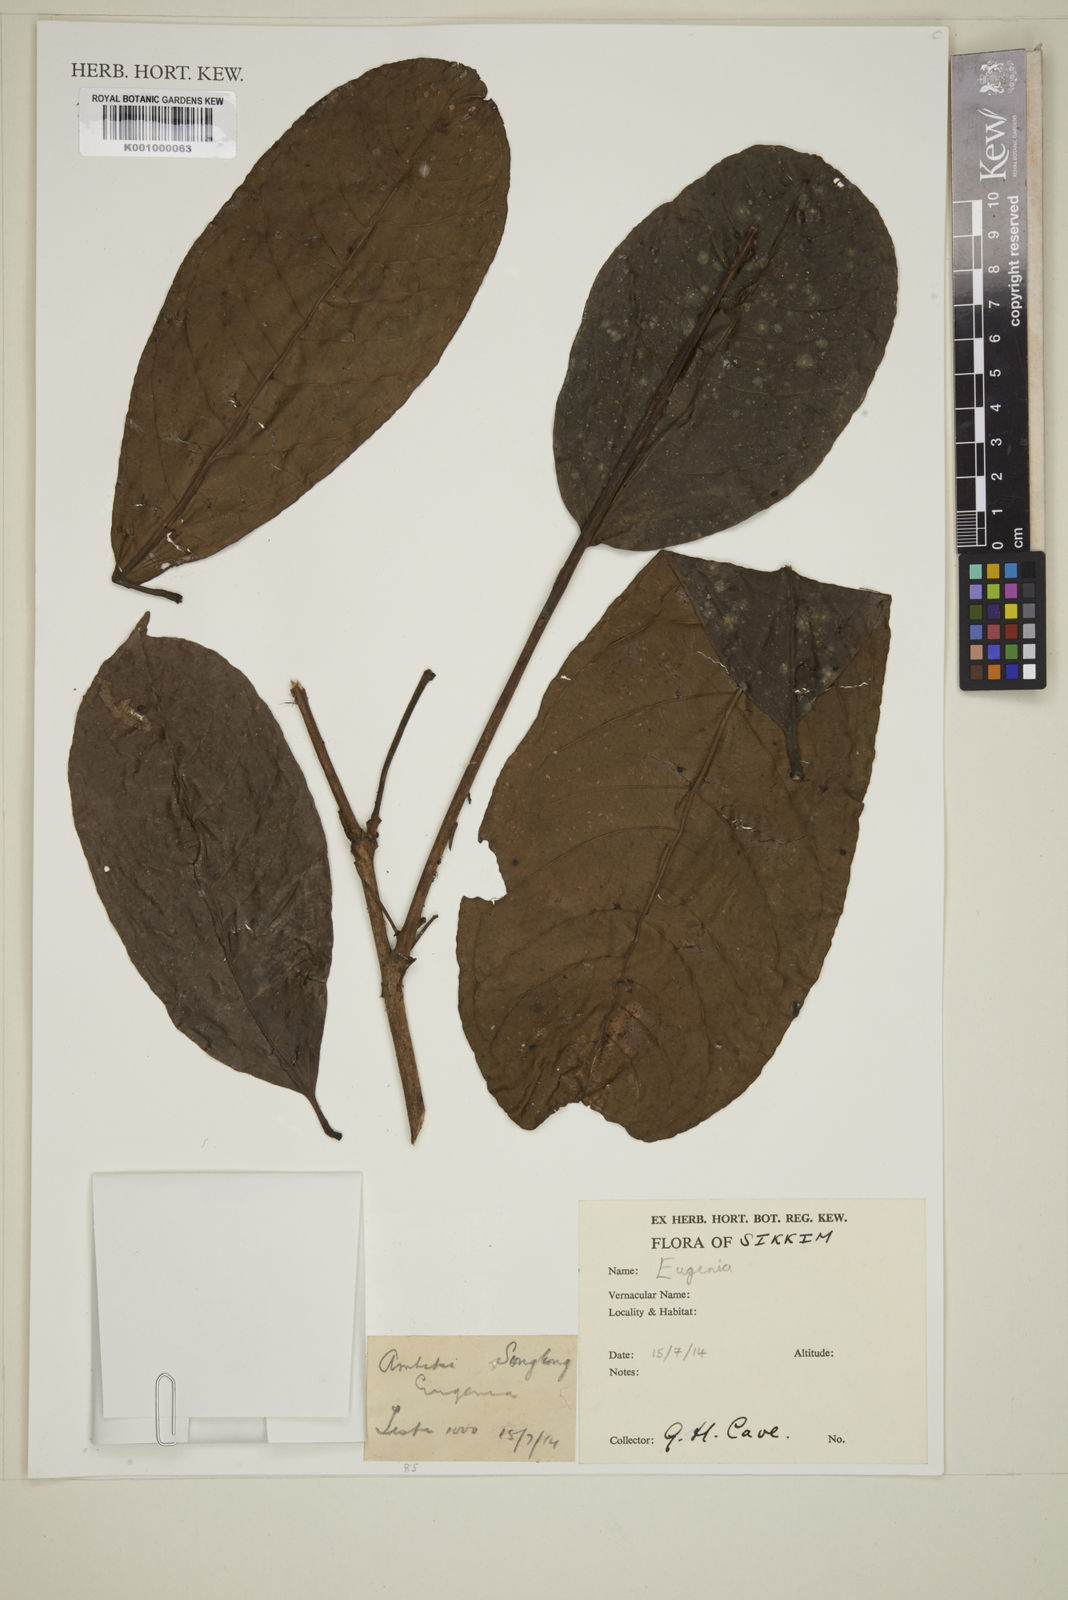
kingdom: Plantae
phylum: Tracheophyta
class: Magnoliopsida
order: Myrtales
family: Myrtaceae
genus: Eugenia
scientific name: Eugenia
